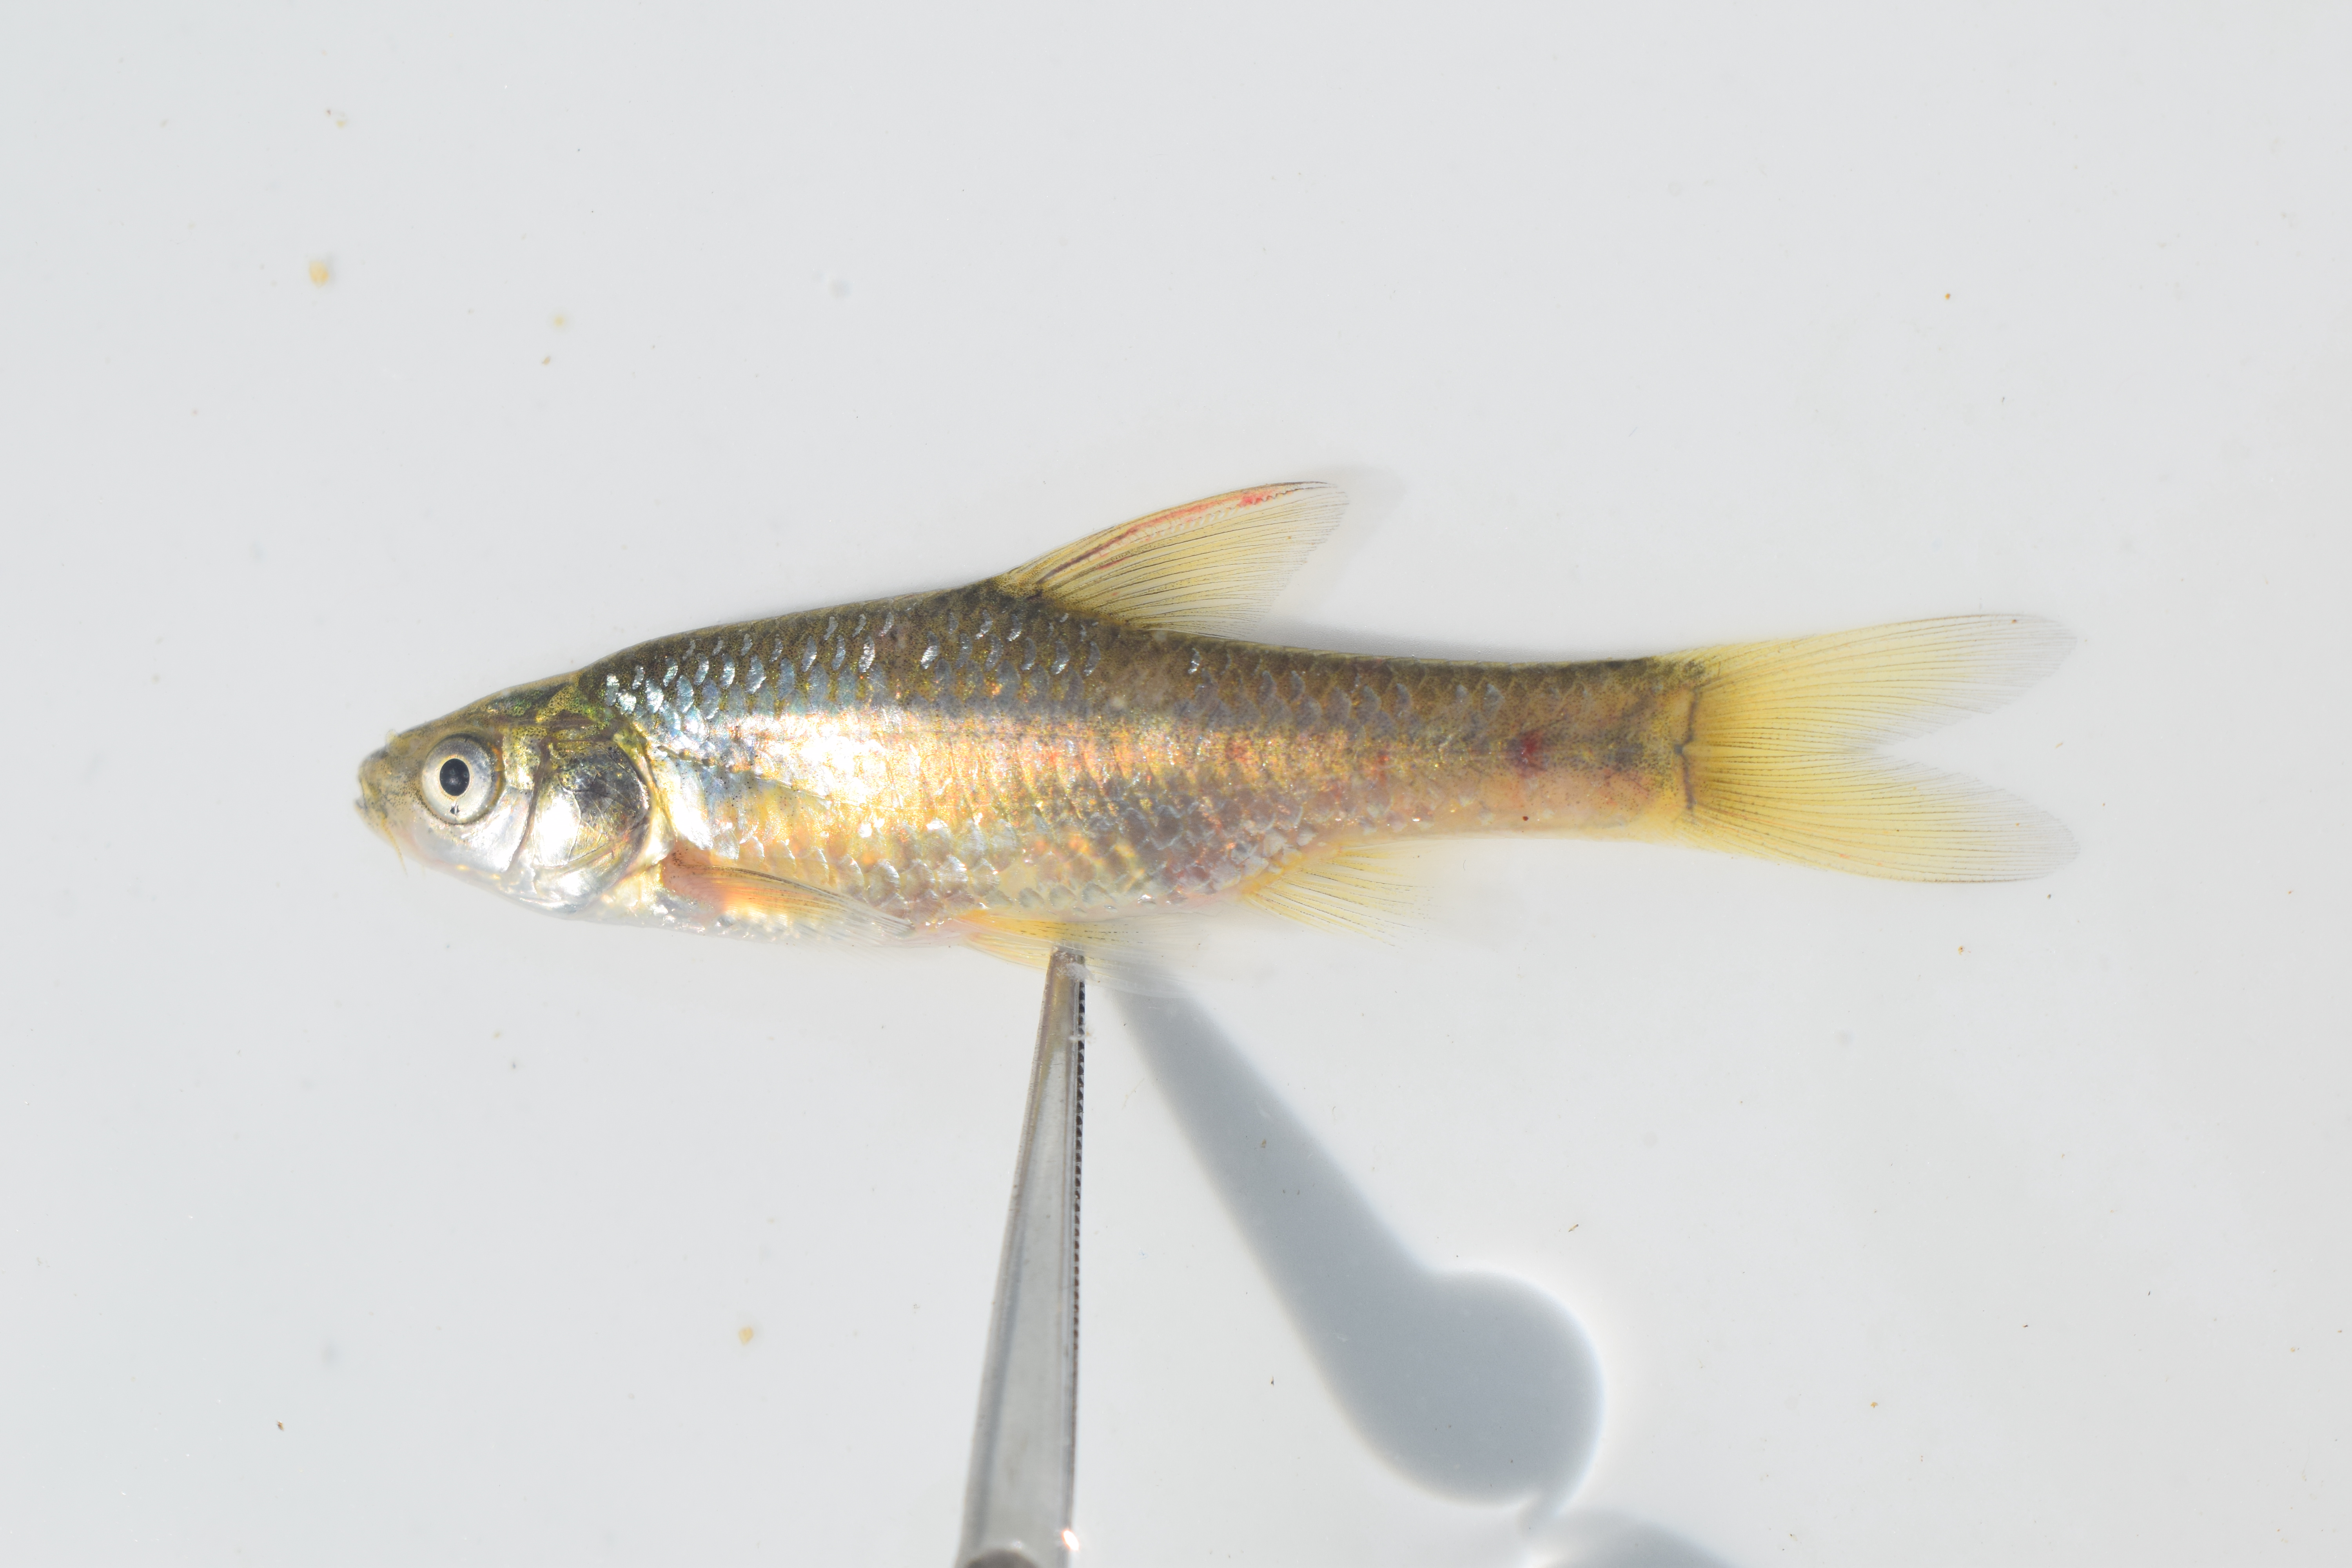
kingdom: Animalia
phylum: Chordata
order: Cypriniformes
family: Cyprinidae
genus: Enteromius
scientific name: Enteromius paludinosus
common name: Straightfin barb
